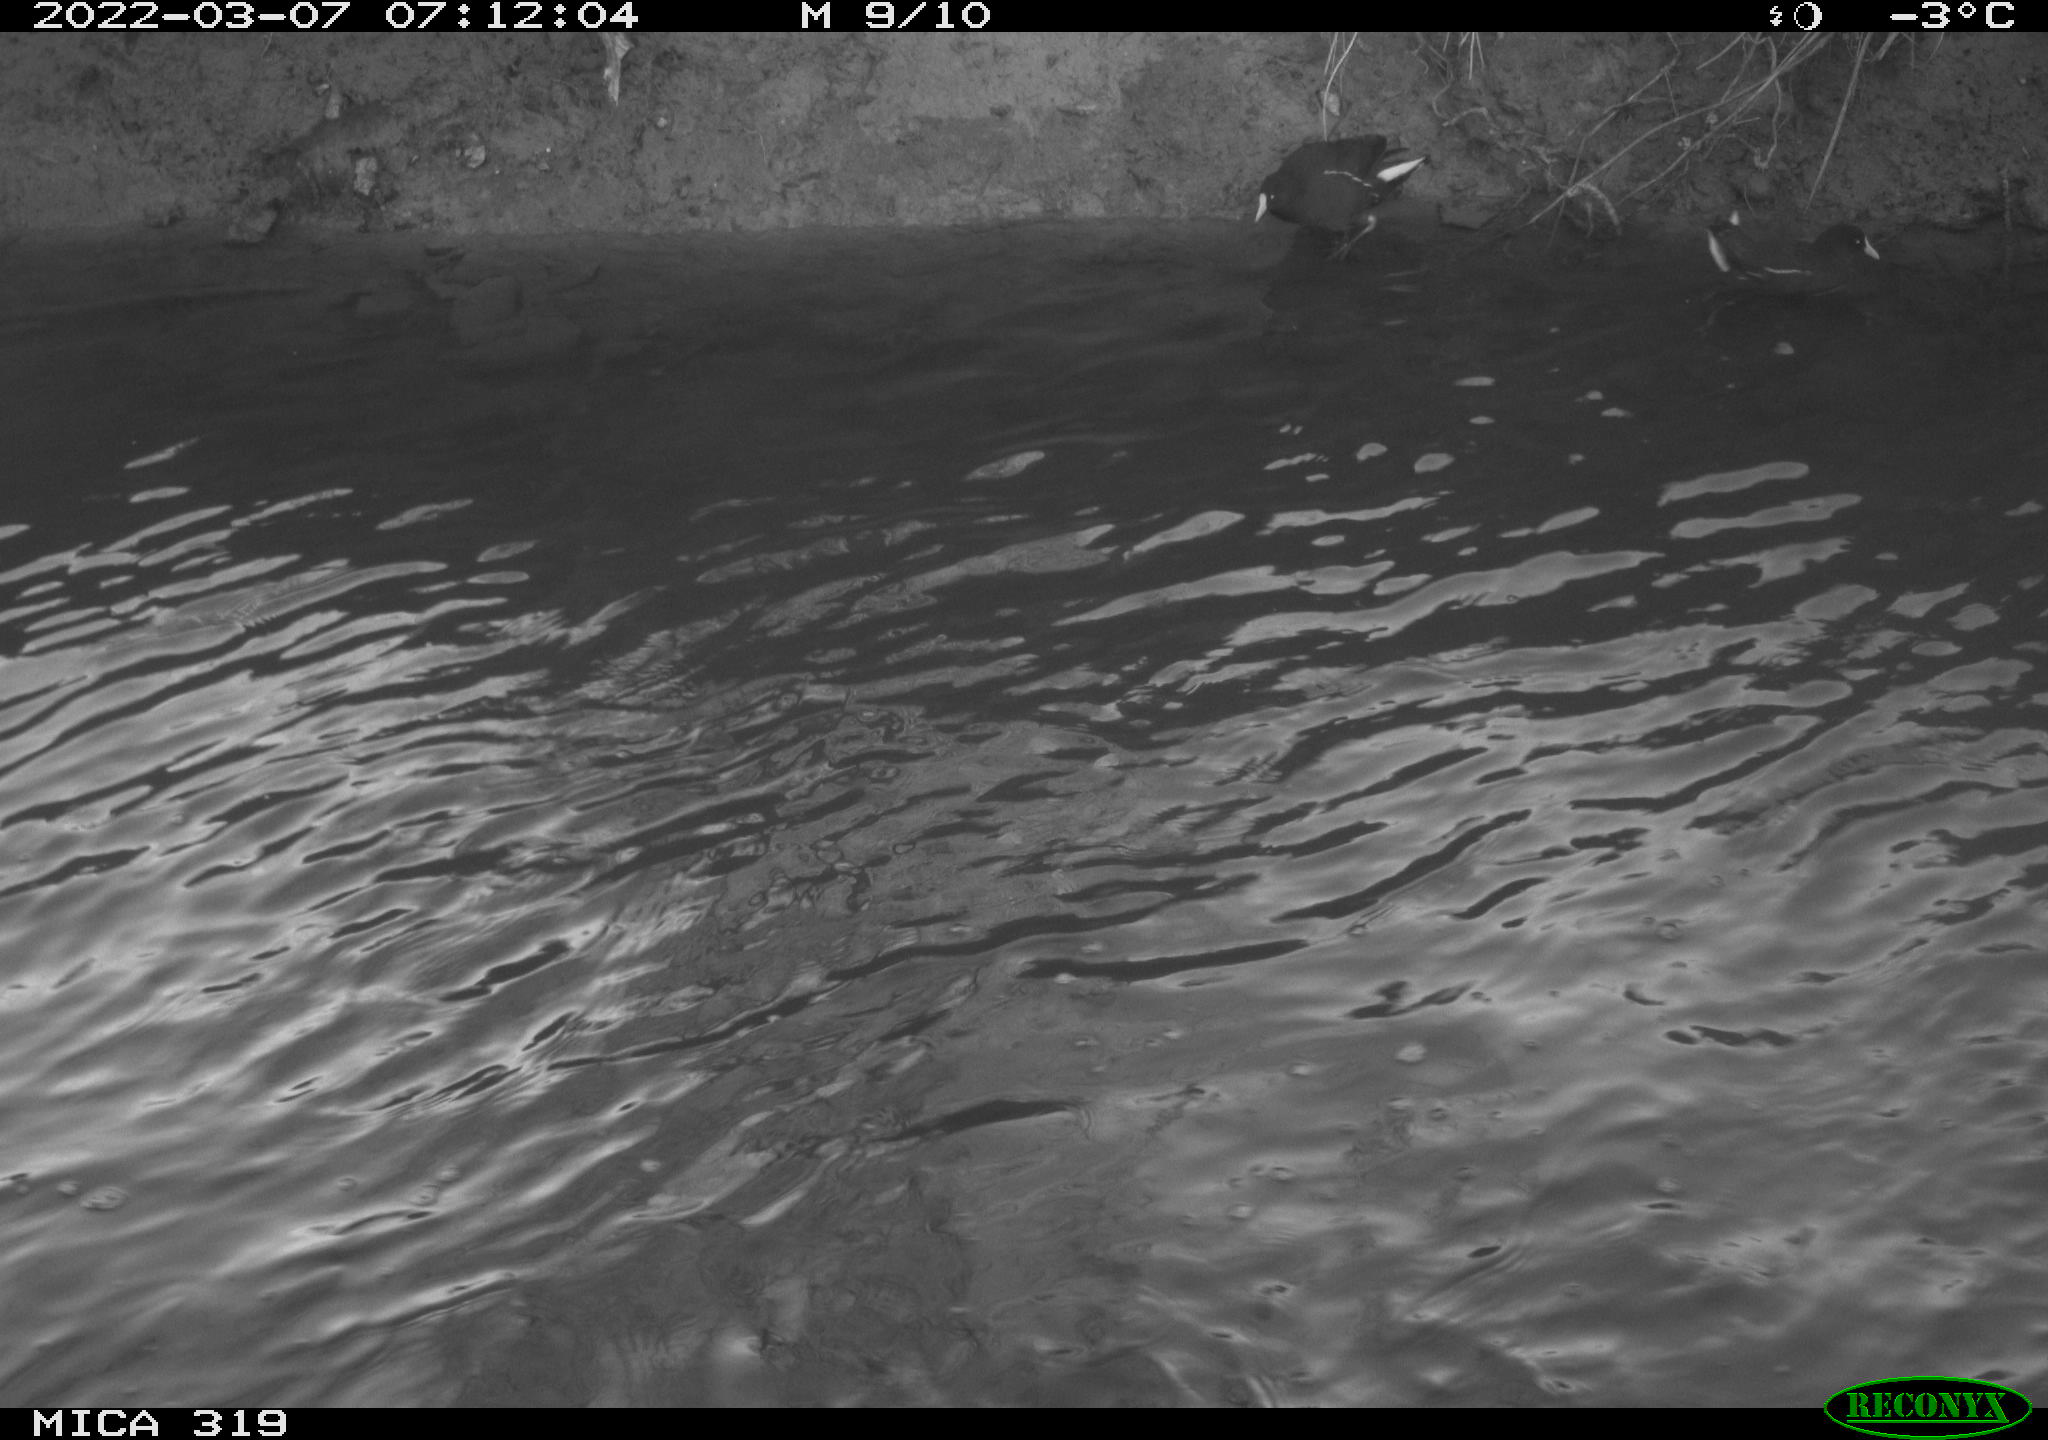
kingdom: Animalia
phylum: Chordata
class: Aves
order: Gruiformes
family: Rallidae
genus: Gallinula
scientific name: Gallinula chloropus
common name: Common moorhen
